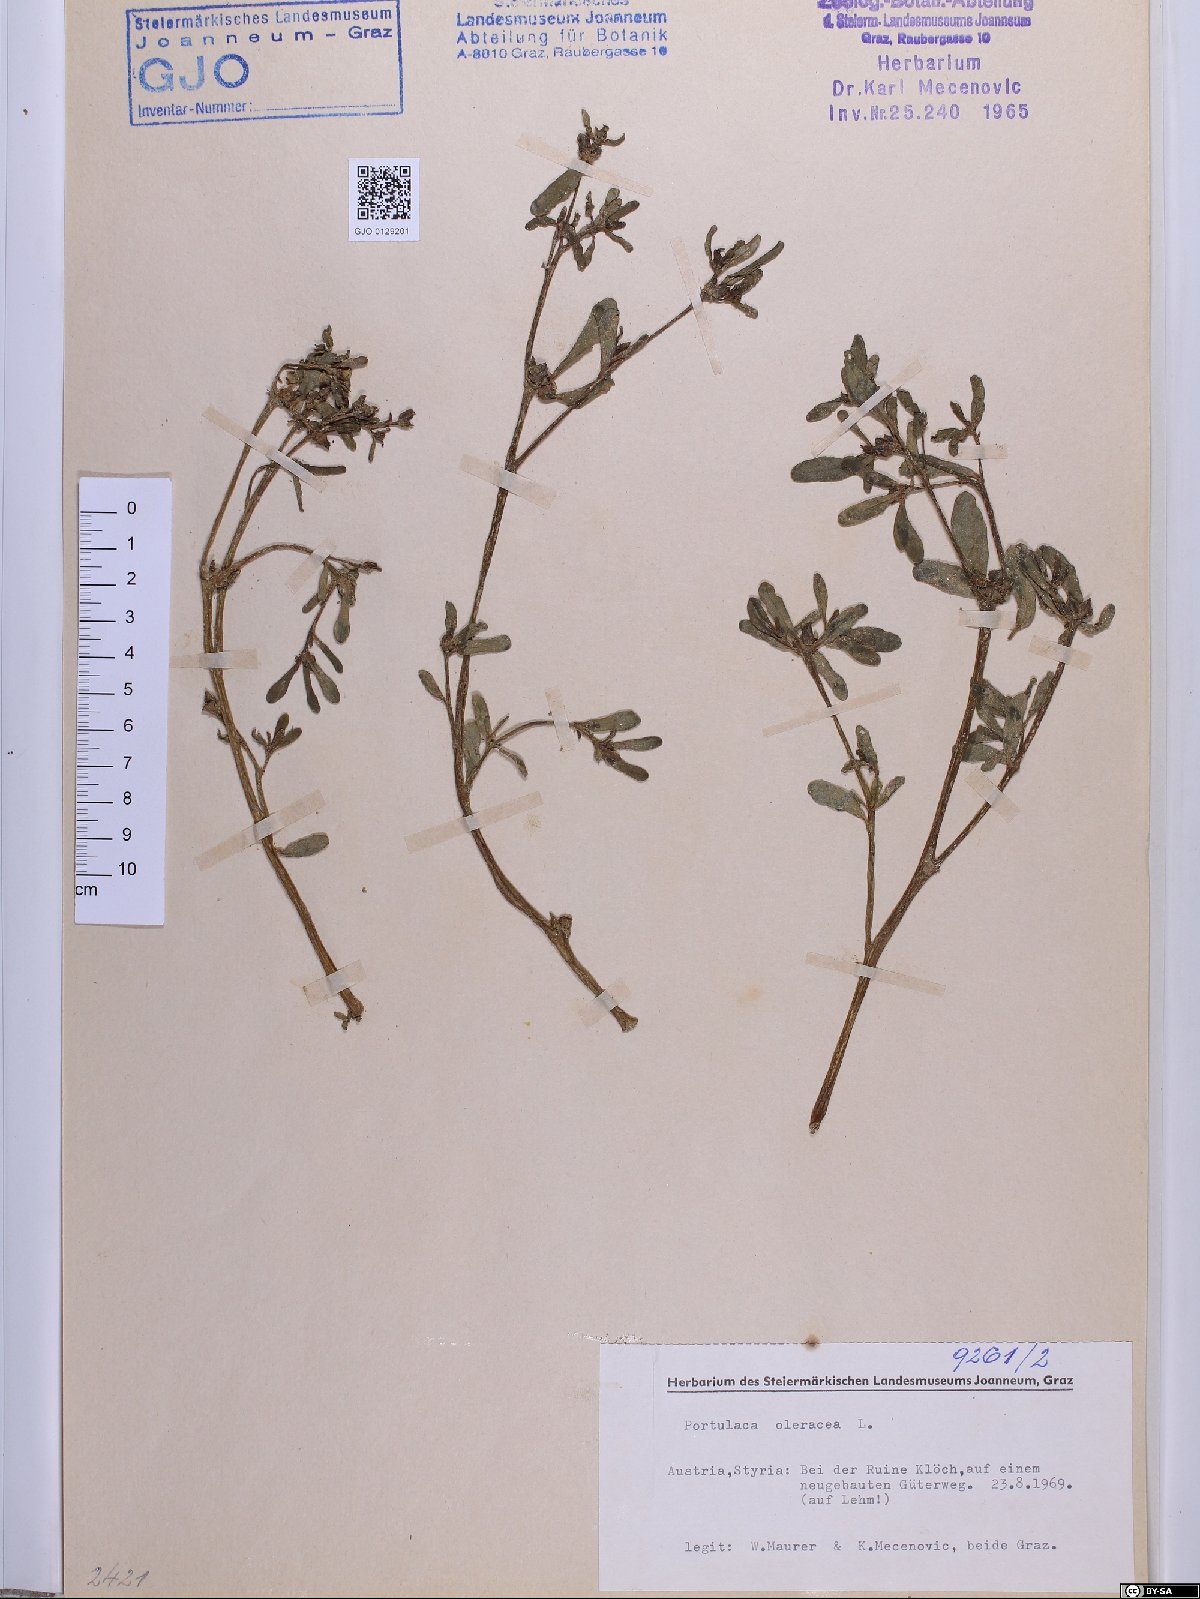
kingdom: Plantae
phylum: Tracheophyta
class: Magnoliopsida
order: Caryophyllales
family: Portulacaceae
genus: Portulaca
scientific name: Portulaca oleracea
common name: Common purslane
